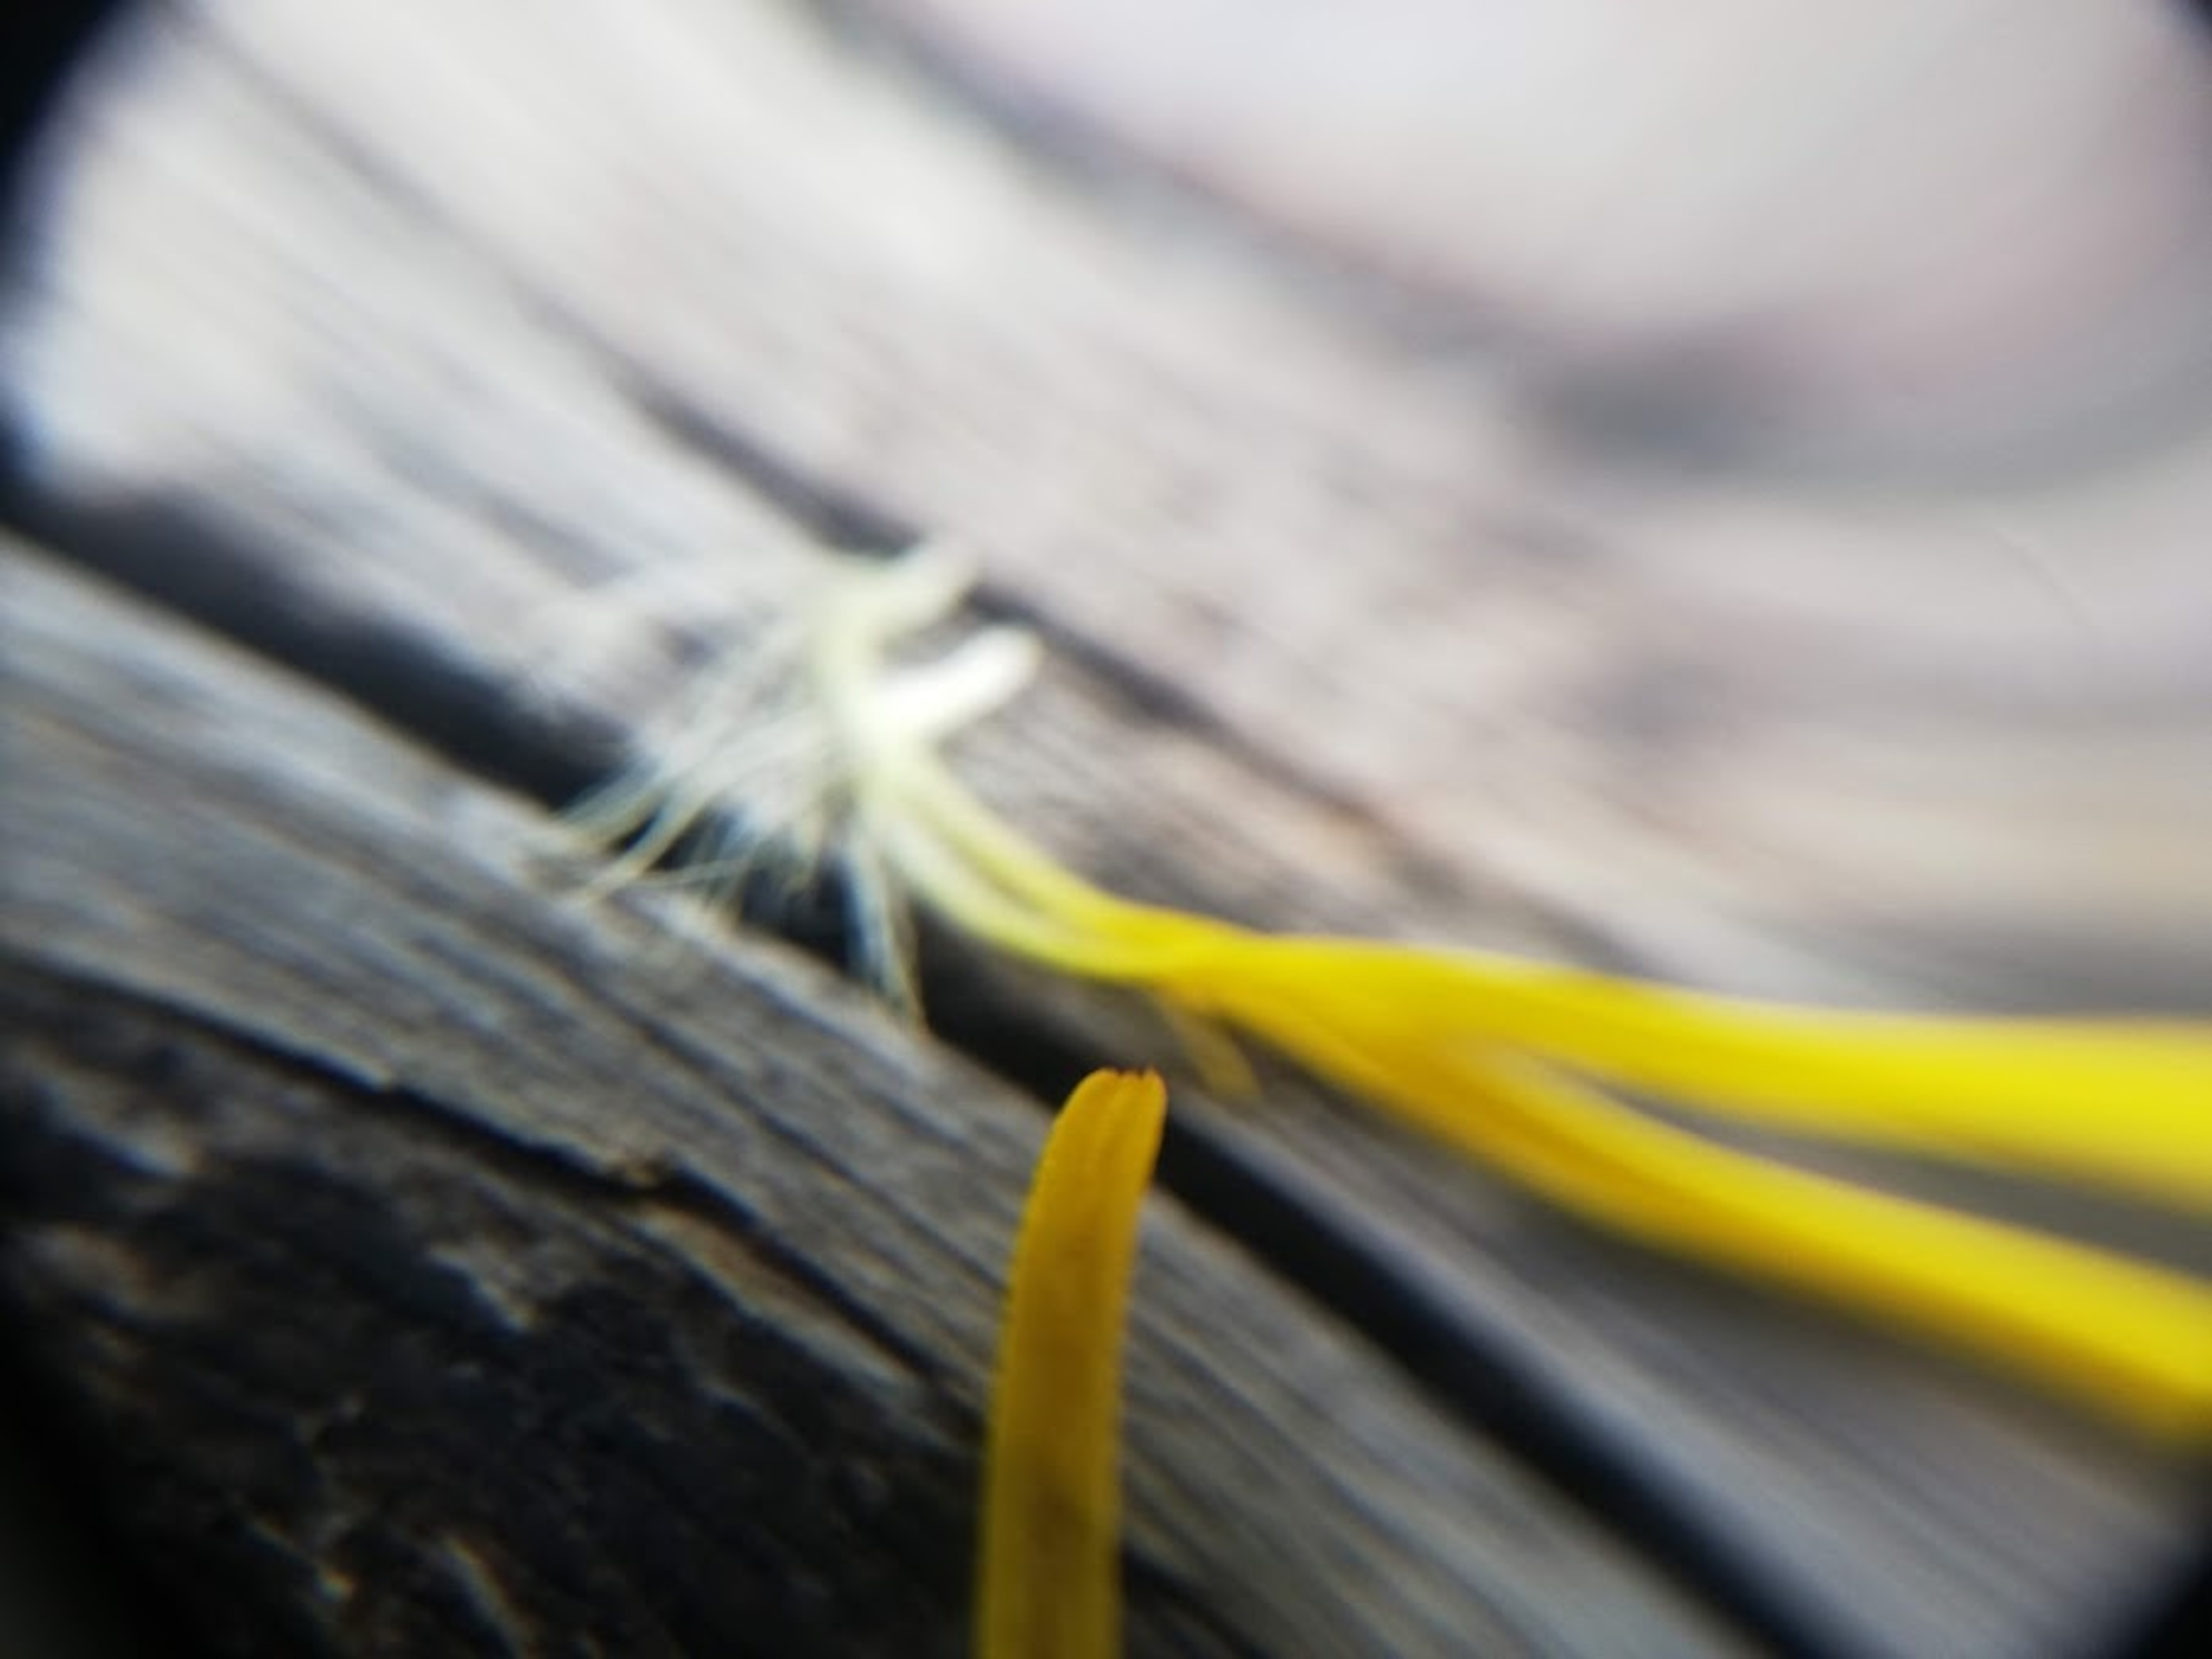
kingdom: Plantae
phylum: Tracheophyta
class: Magnoliopsida
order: Asterales
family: Asteraceae
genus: Pentanema
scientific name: Pentanema salicinum
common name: Pile-alant
